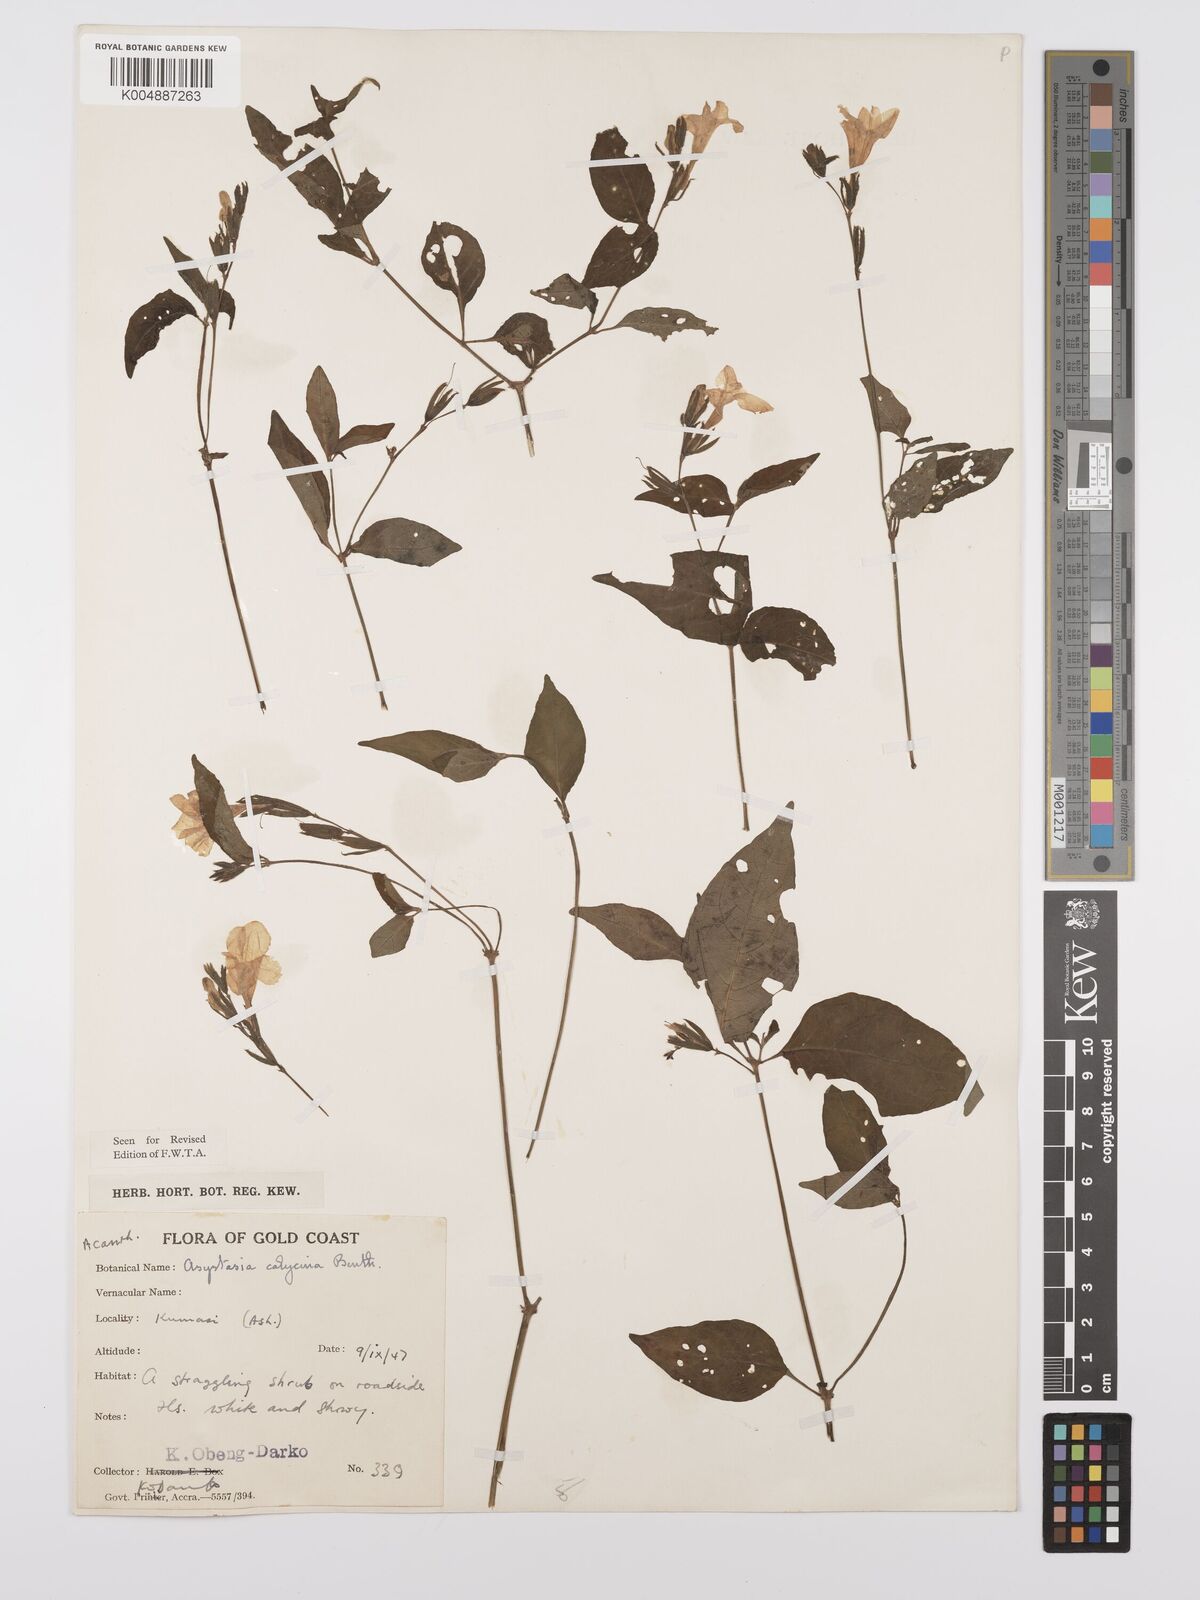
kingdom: Plantae
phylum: Tracheophyta
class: Magnoliopsida
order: Lamiales
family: Acanthaceae
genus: Asystasia
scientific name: Asystasia
